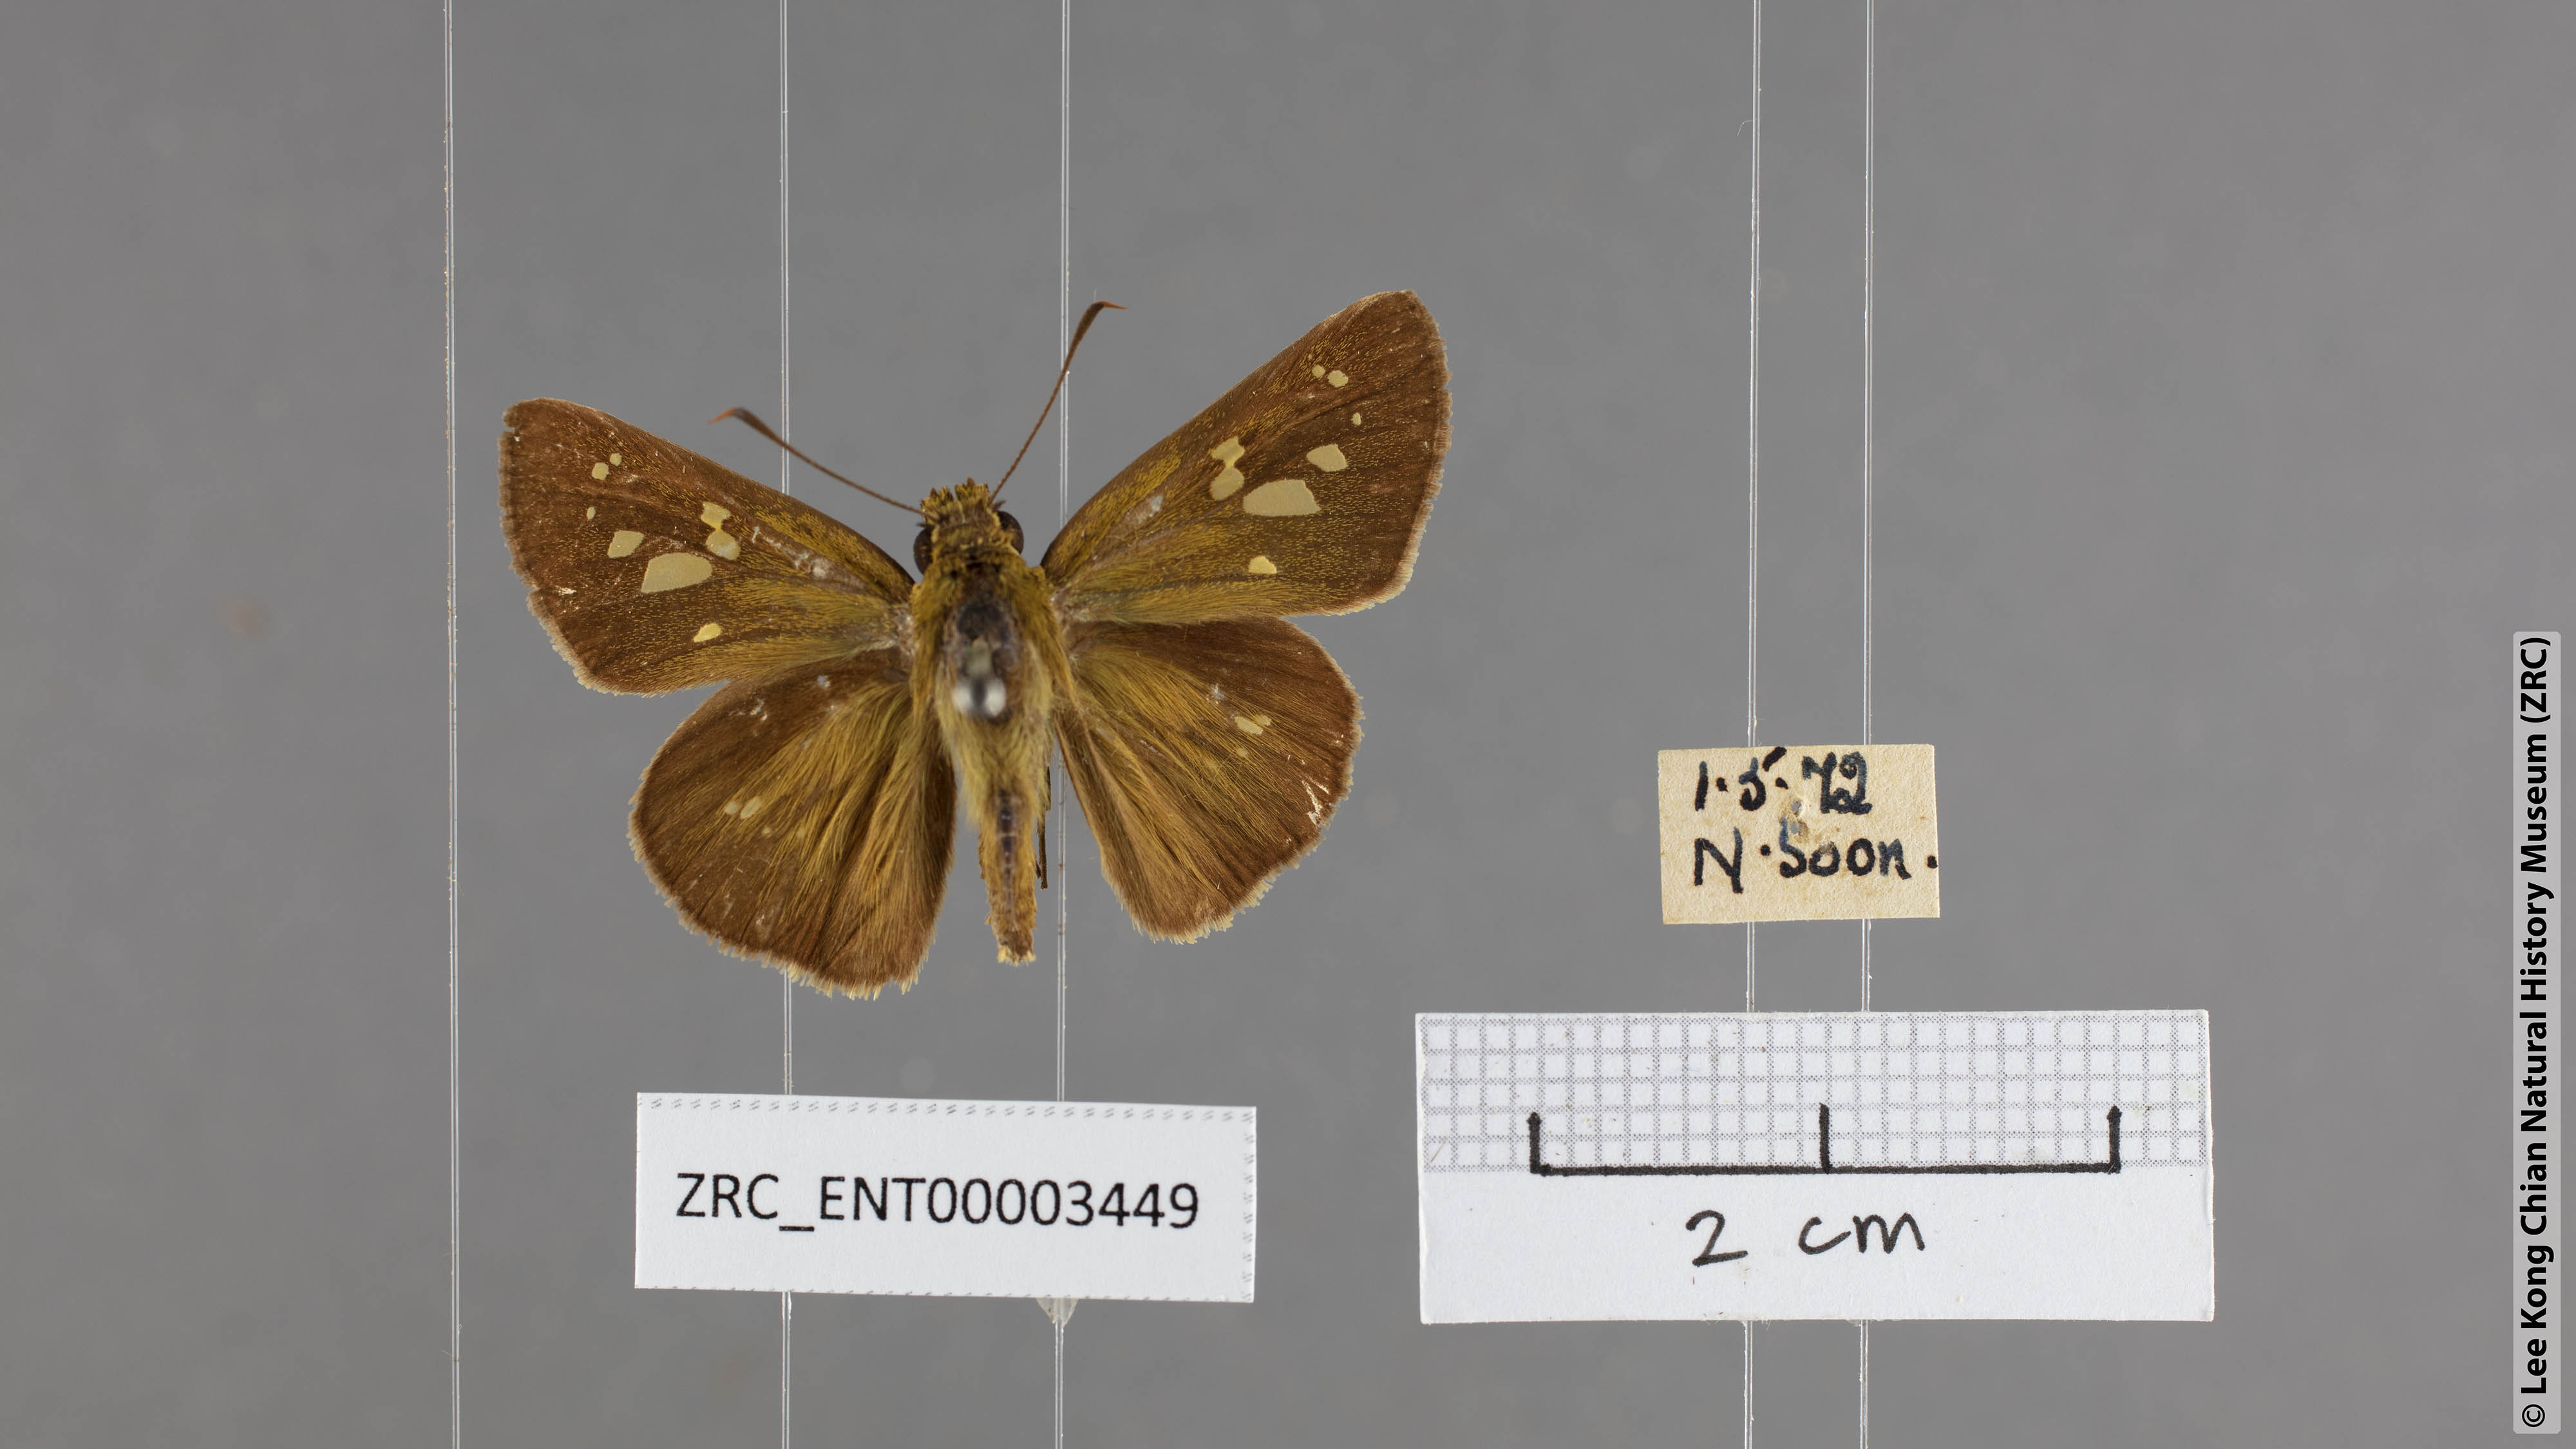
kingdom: Animalia
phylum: Arthropoda
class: Insecta
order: Lepidoptera
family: Hesperiidae
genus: Polytremis
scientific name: Polytremis lubricans
